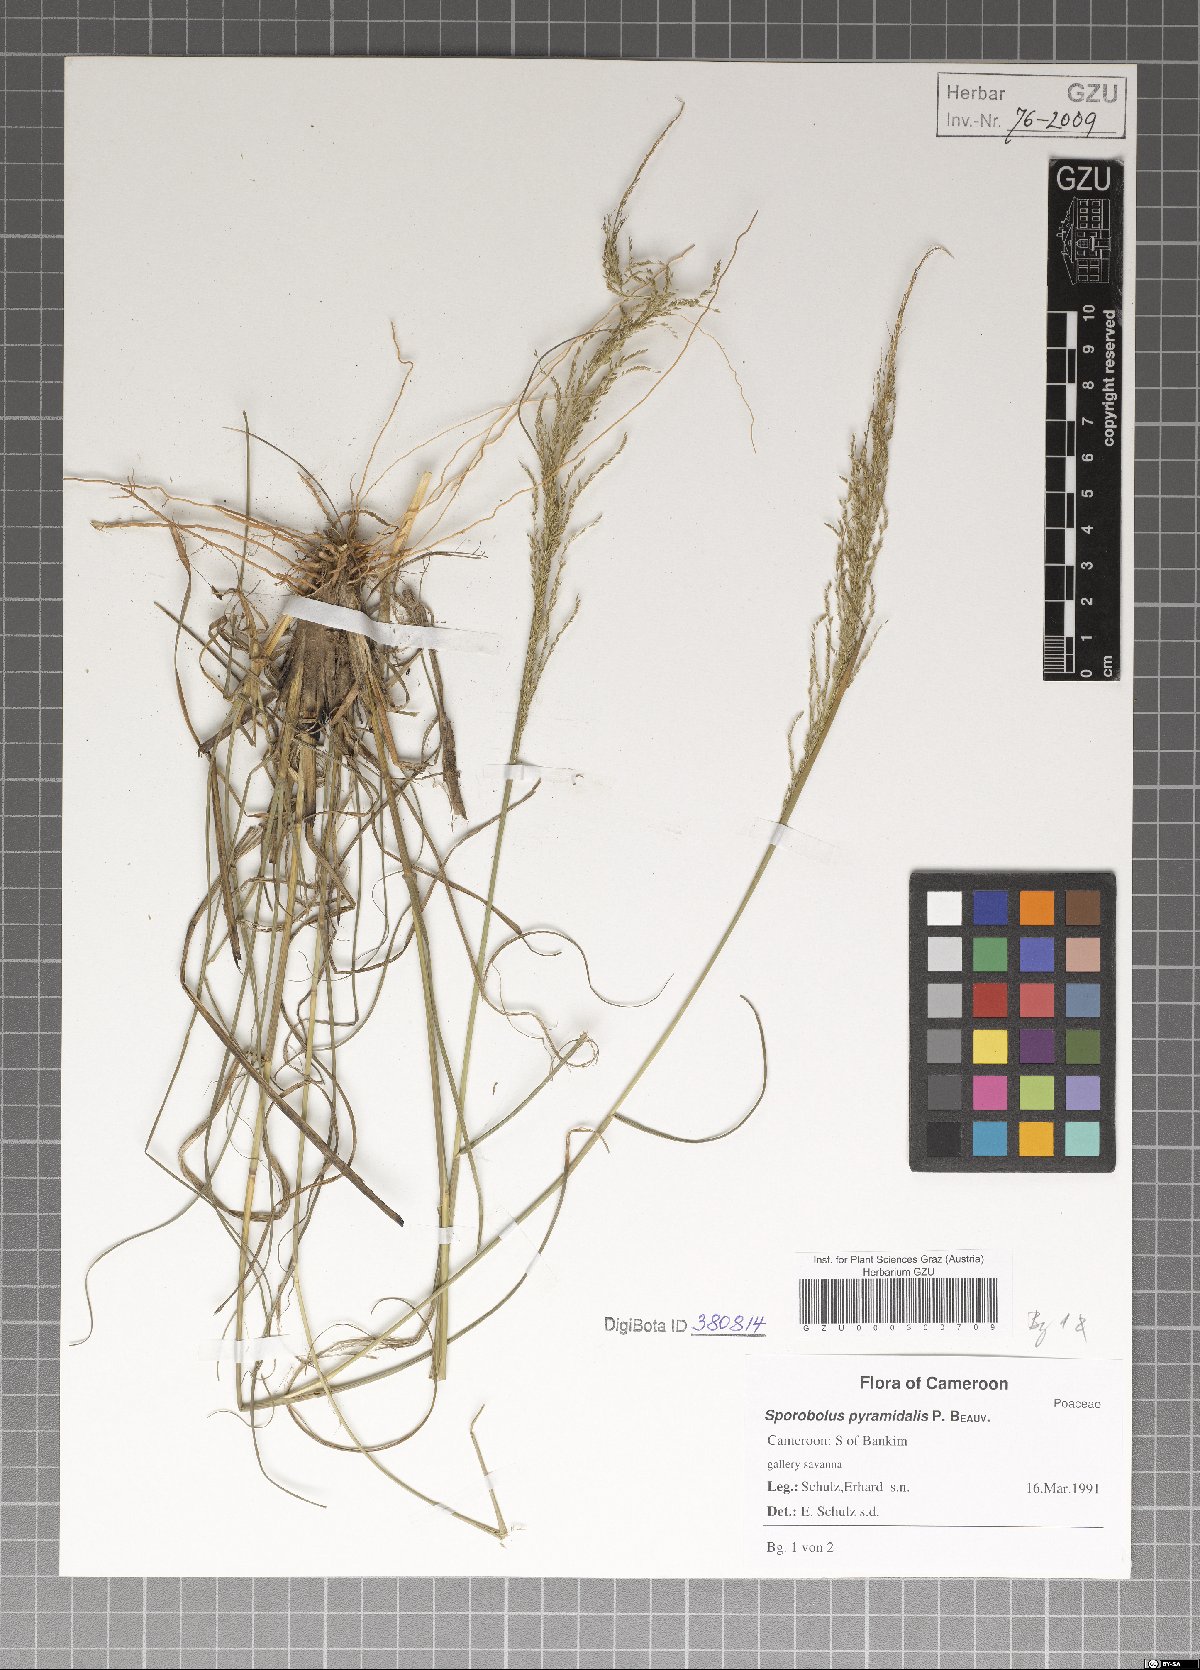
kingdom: Plantae
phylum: Tracheophyta
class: Liliopsida
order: Poales
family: Poaceae
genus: Sporobolus
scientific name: Sporobolus pyramidalis
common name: West indian dropseed
